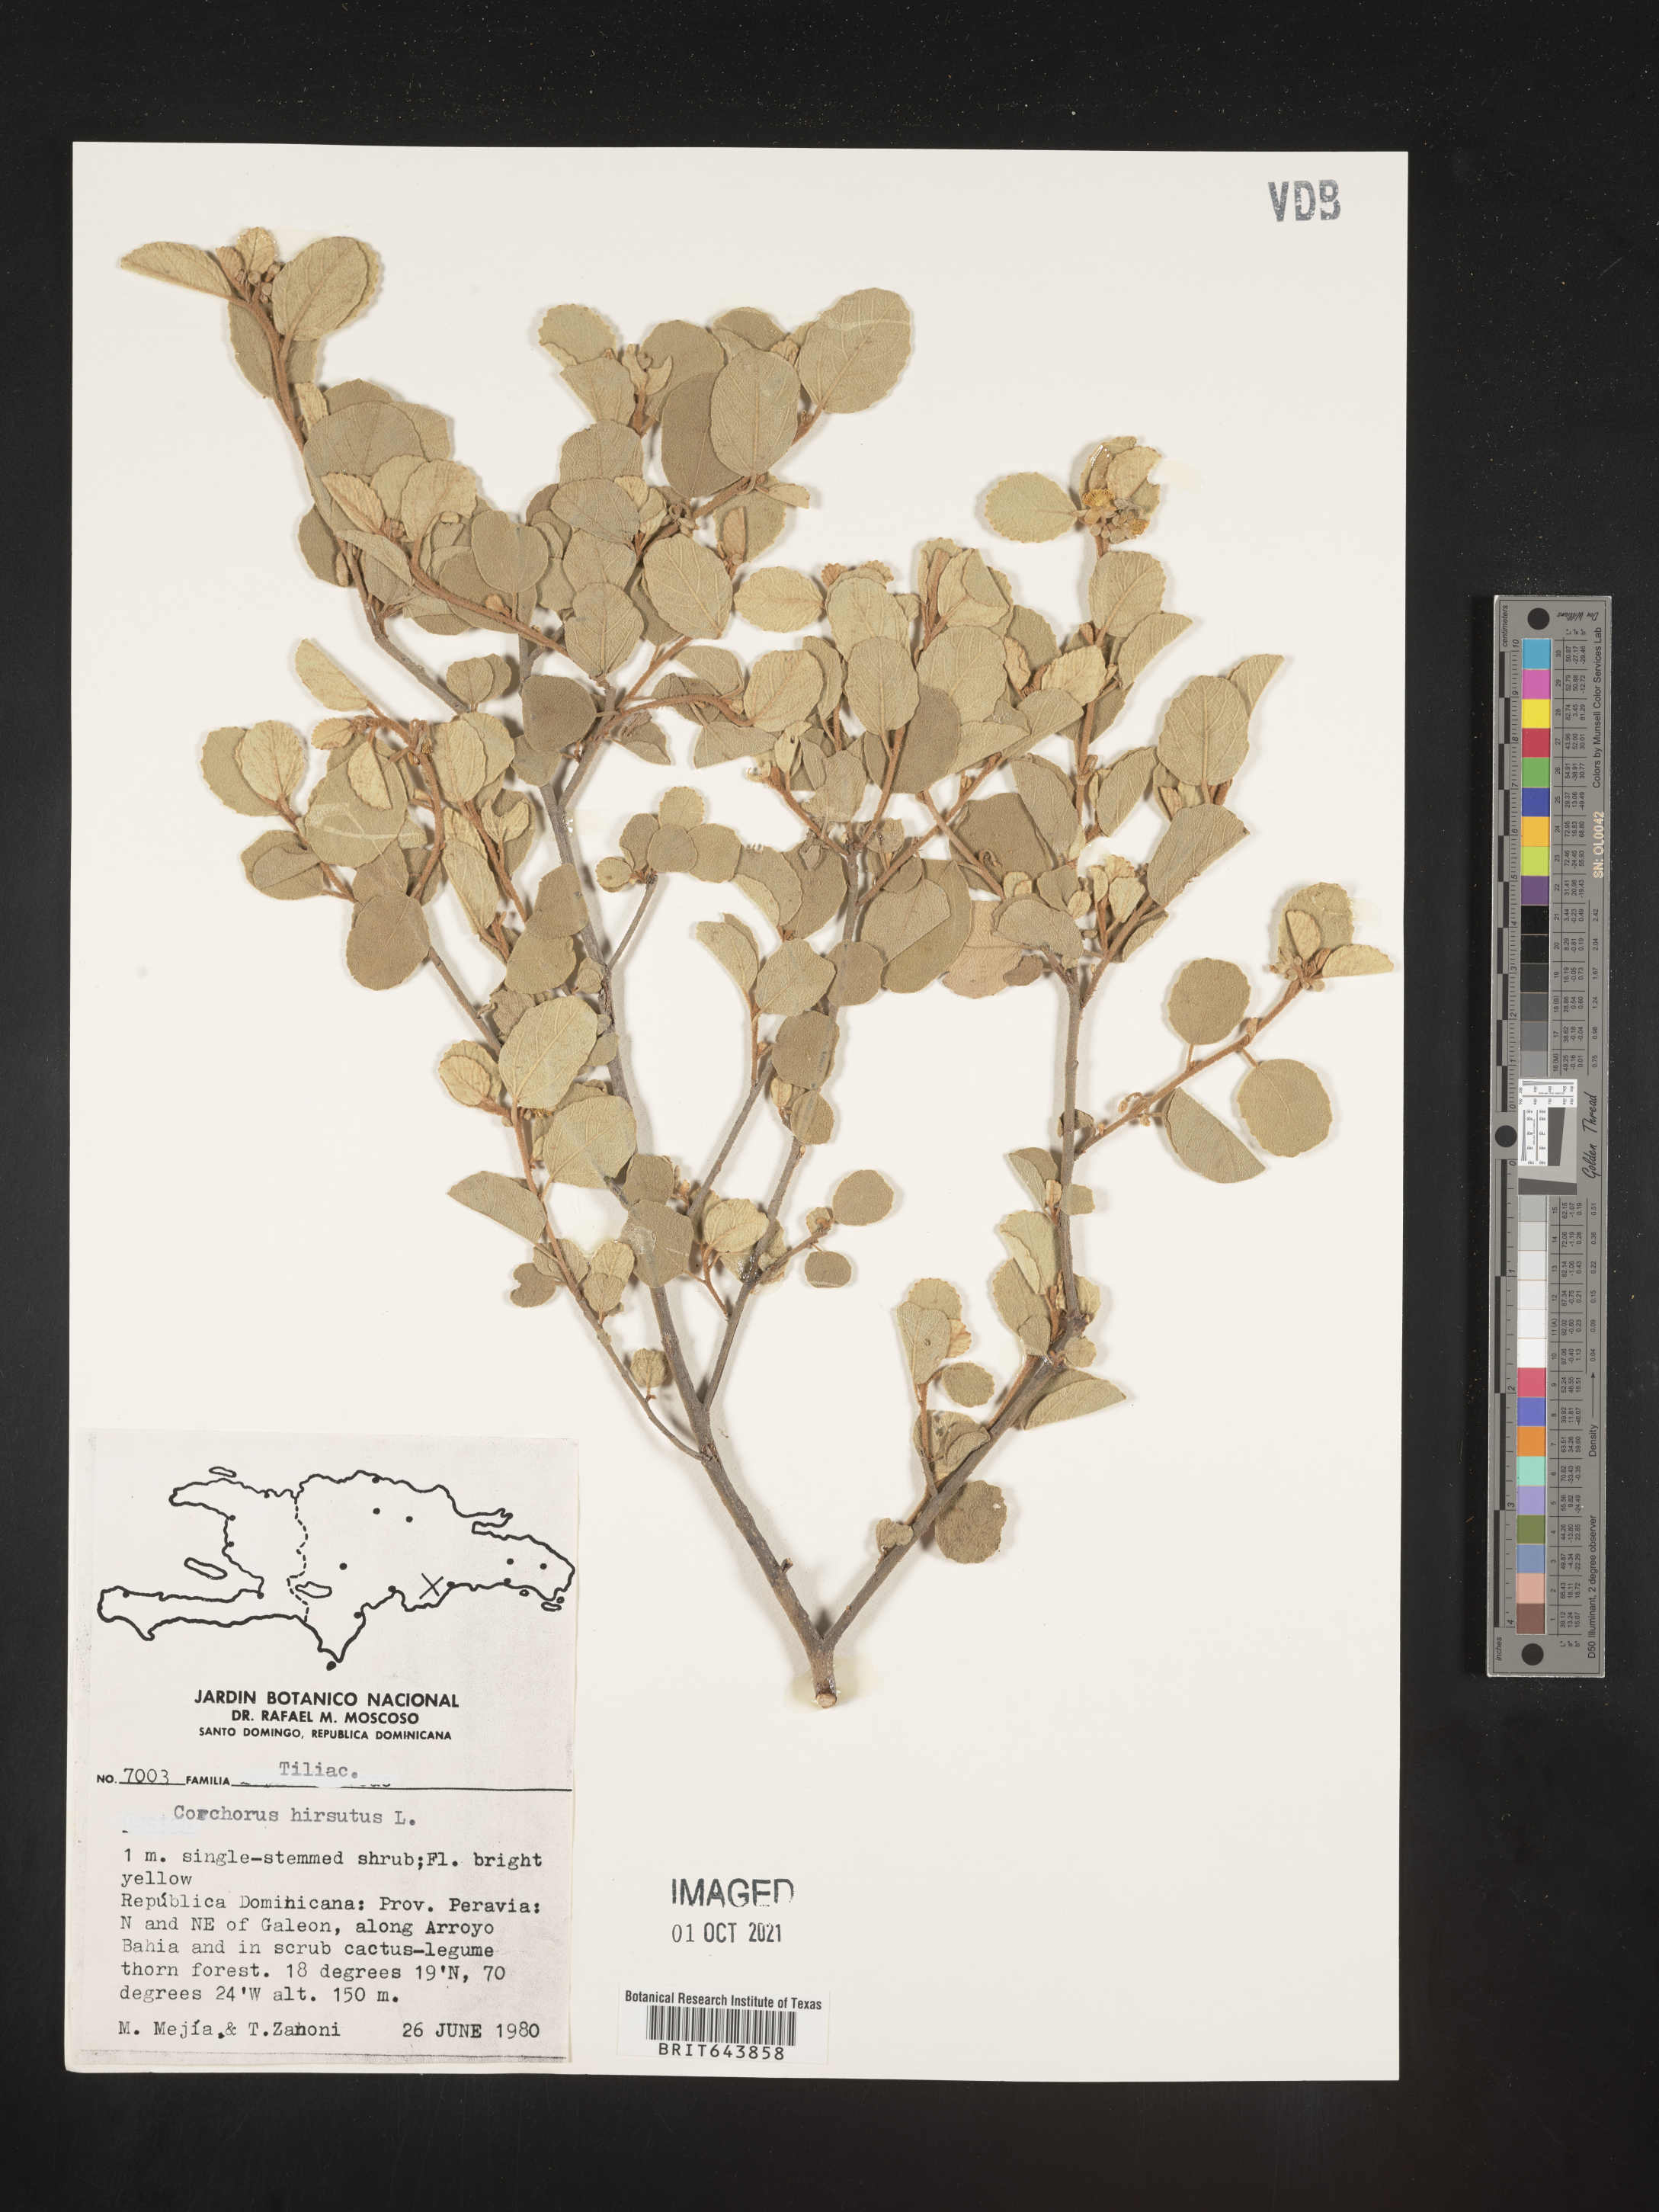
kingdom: Plantae
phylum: Tracheophyta
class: Magnoliopsida
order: Malvales
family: Malvaceae
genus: Corchorus
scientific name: Corchorus
